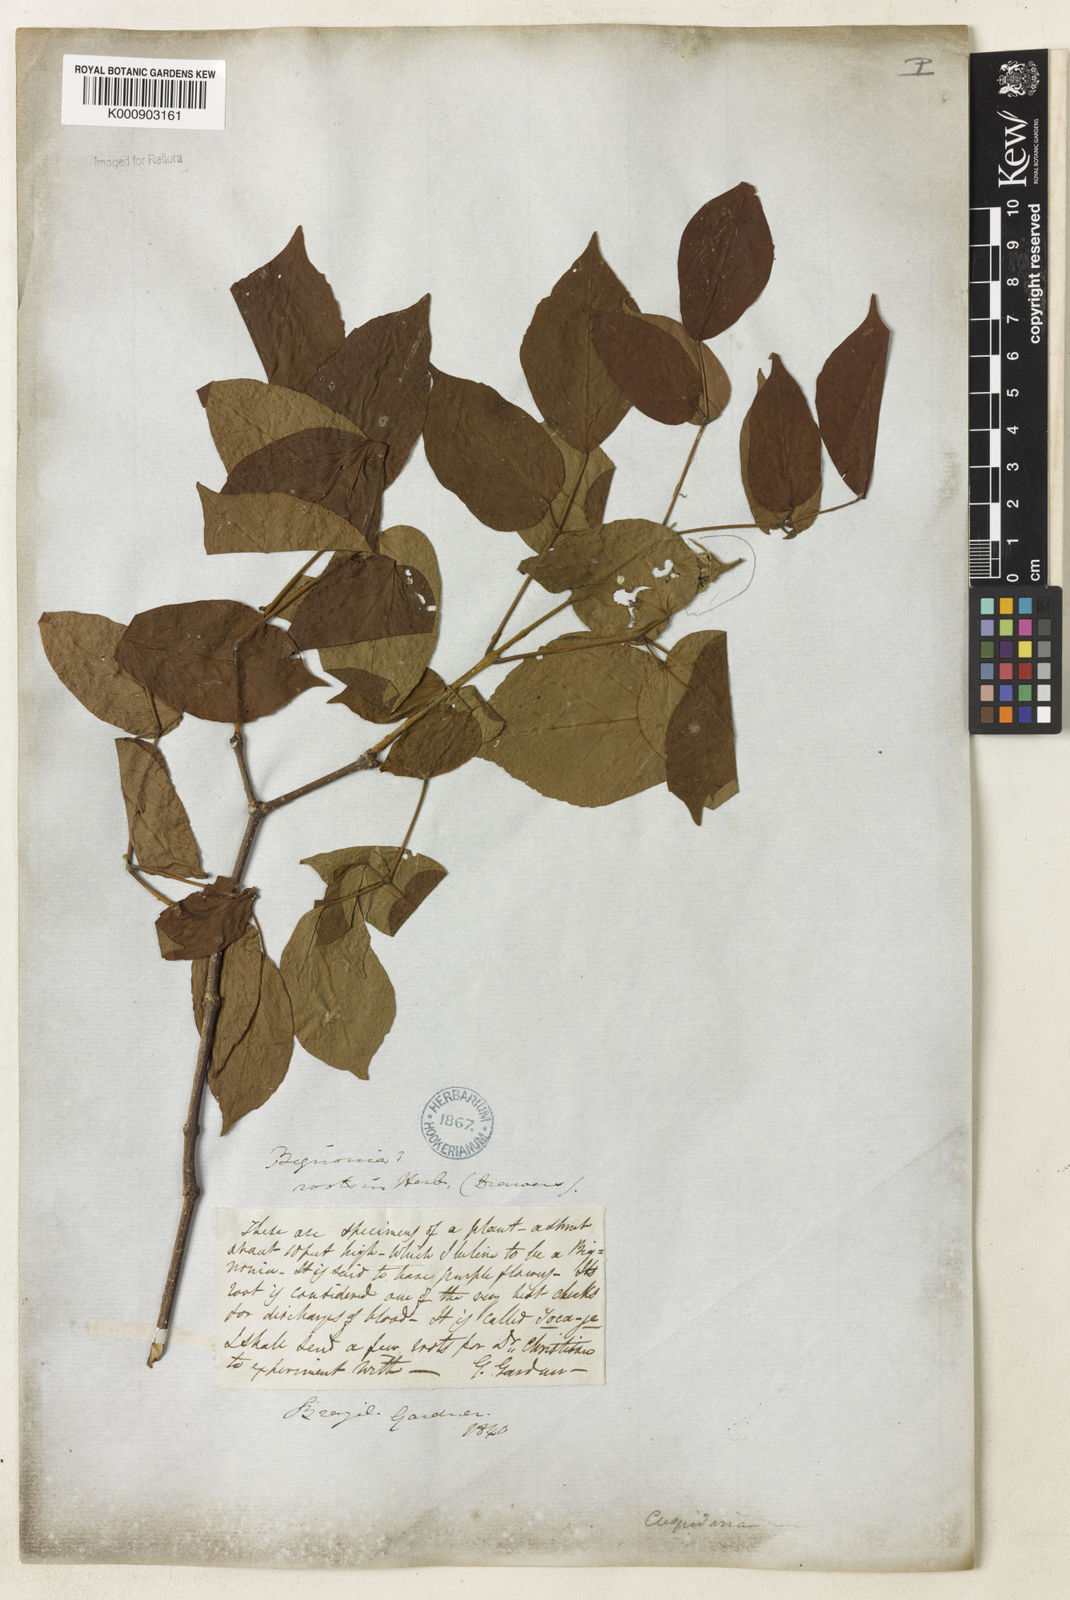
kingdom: Plantae
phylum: Tracheophyta
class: Magnoliopsida
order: Lamiales
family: Bignoniaceae
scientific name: Bignoniaceae
